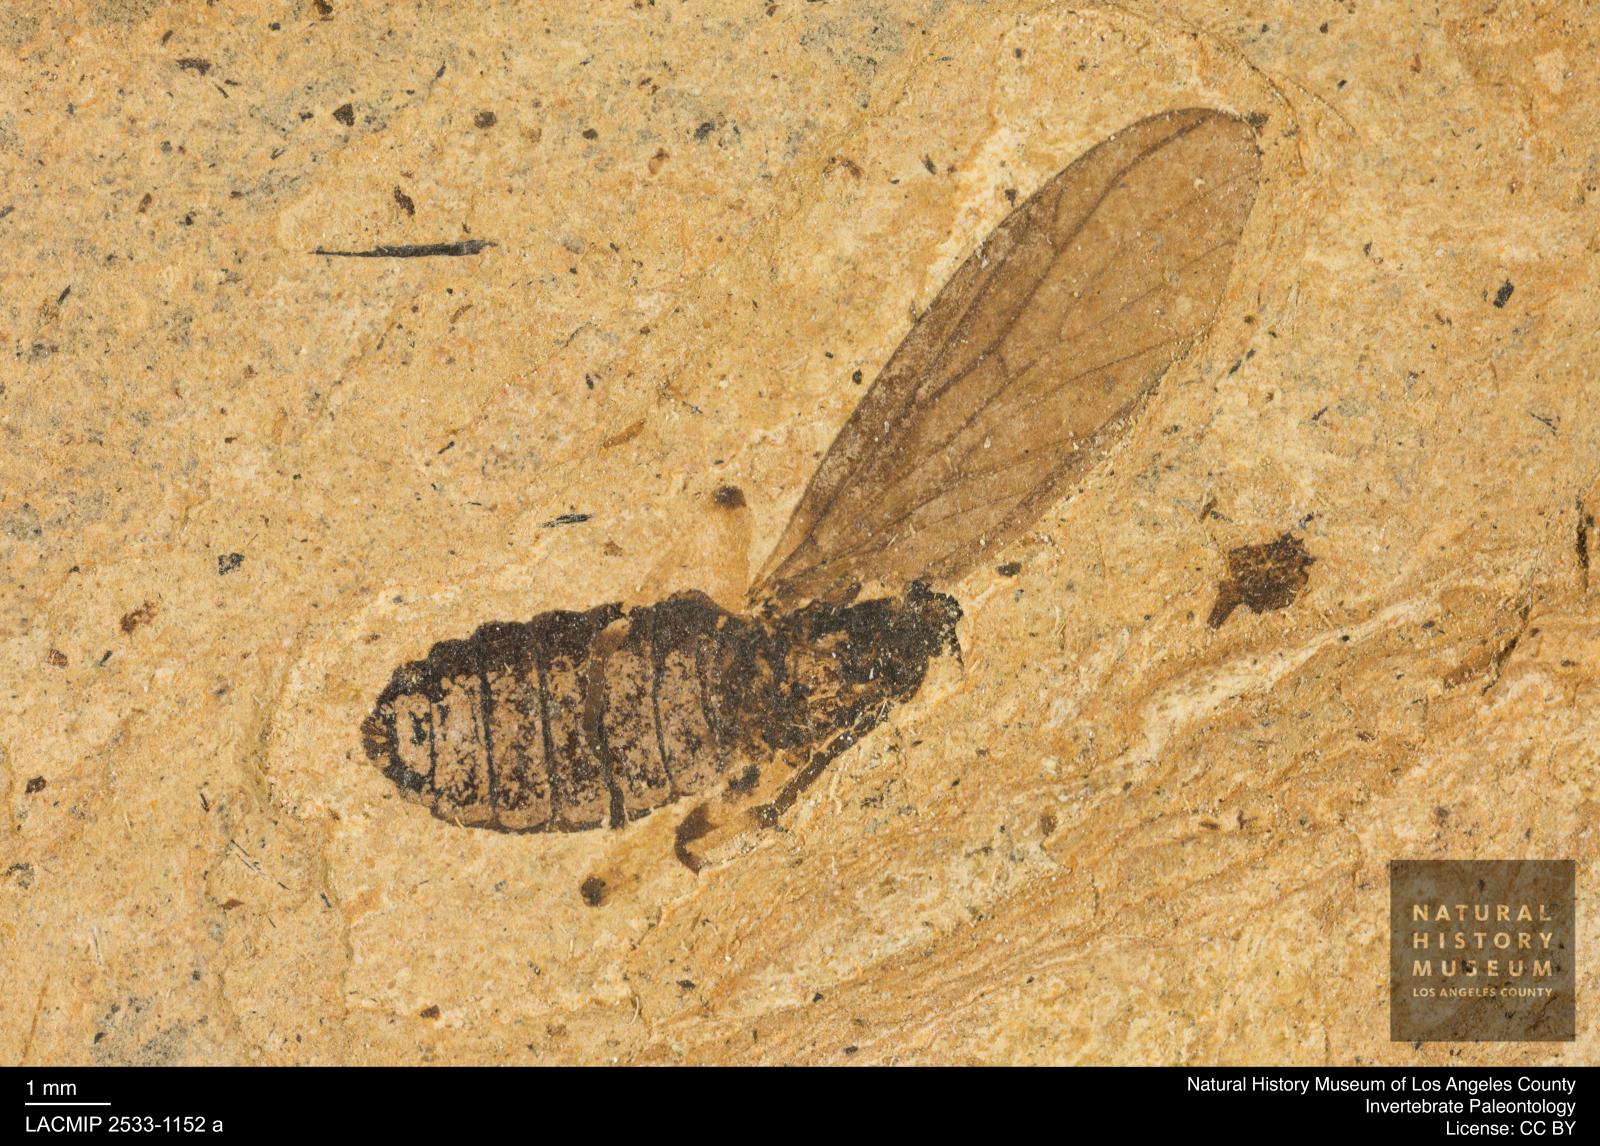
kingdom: Animalia
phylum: Arthropoda
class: Insecta
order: Diptera
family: Bibionidae
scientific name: Bibionidae
